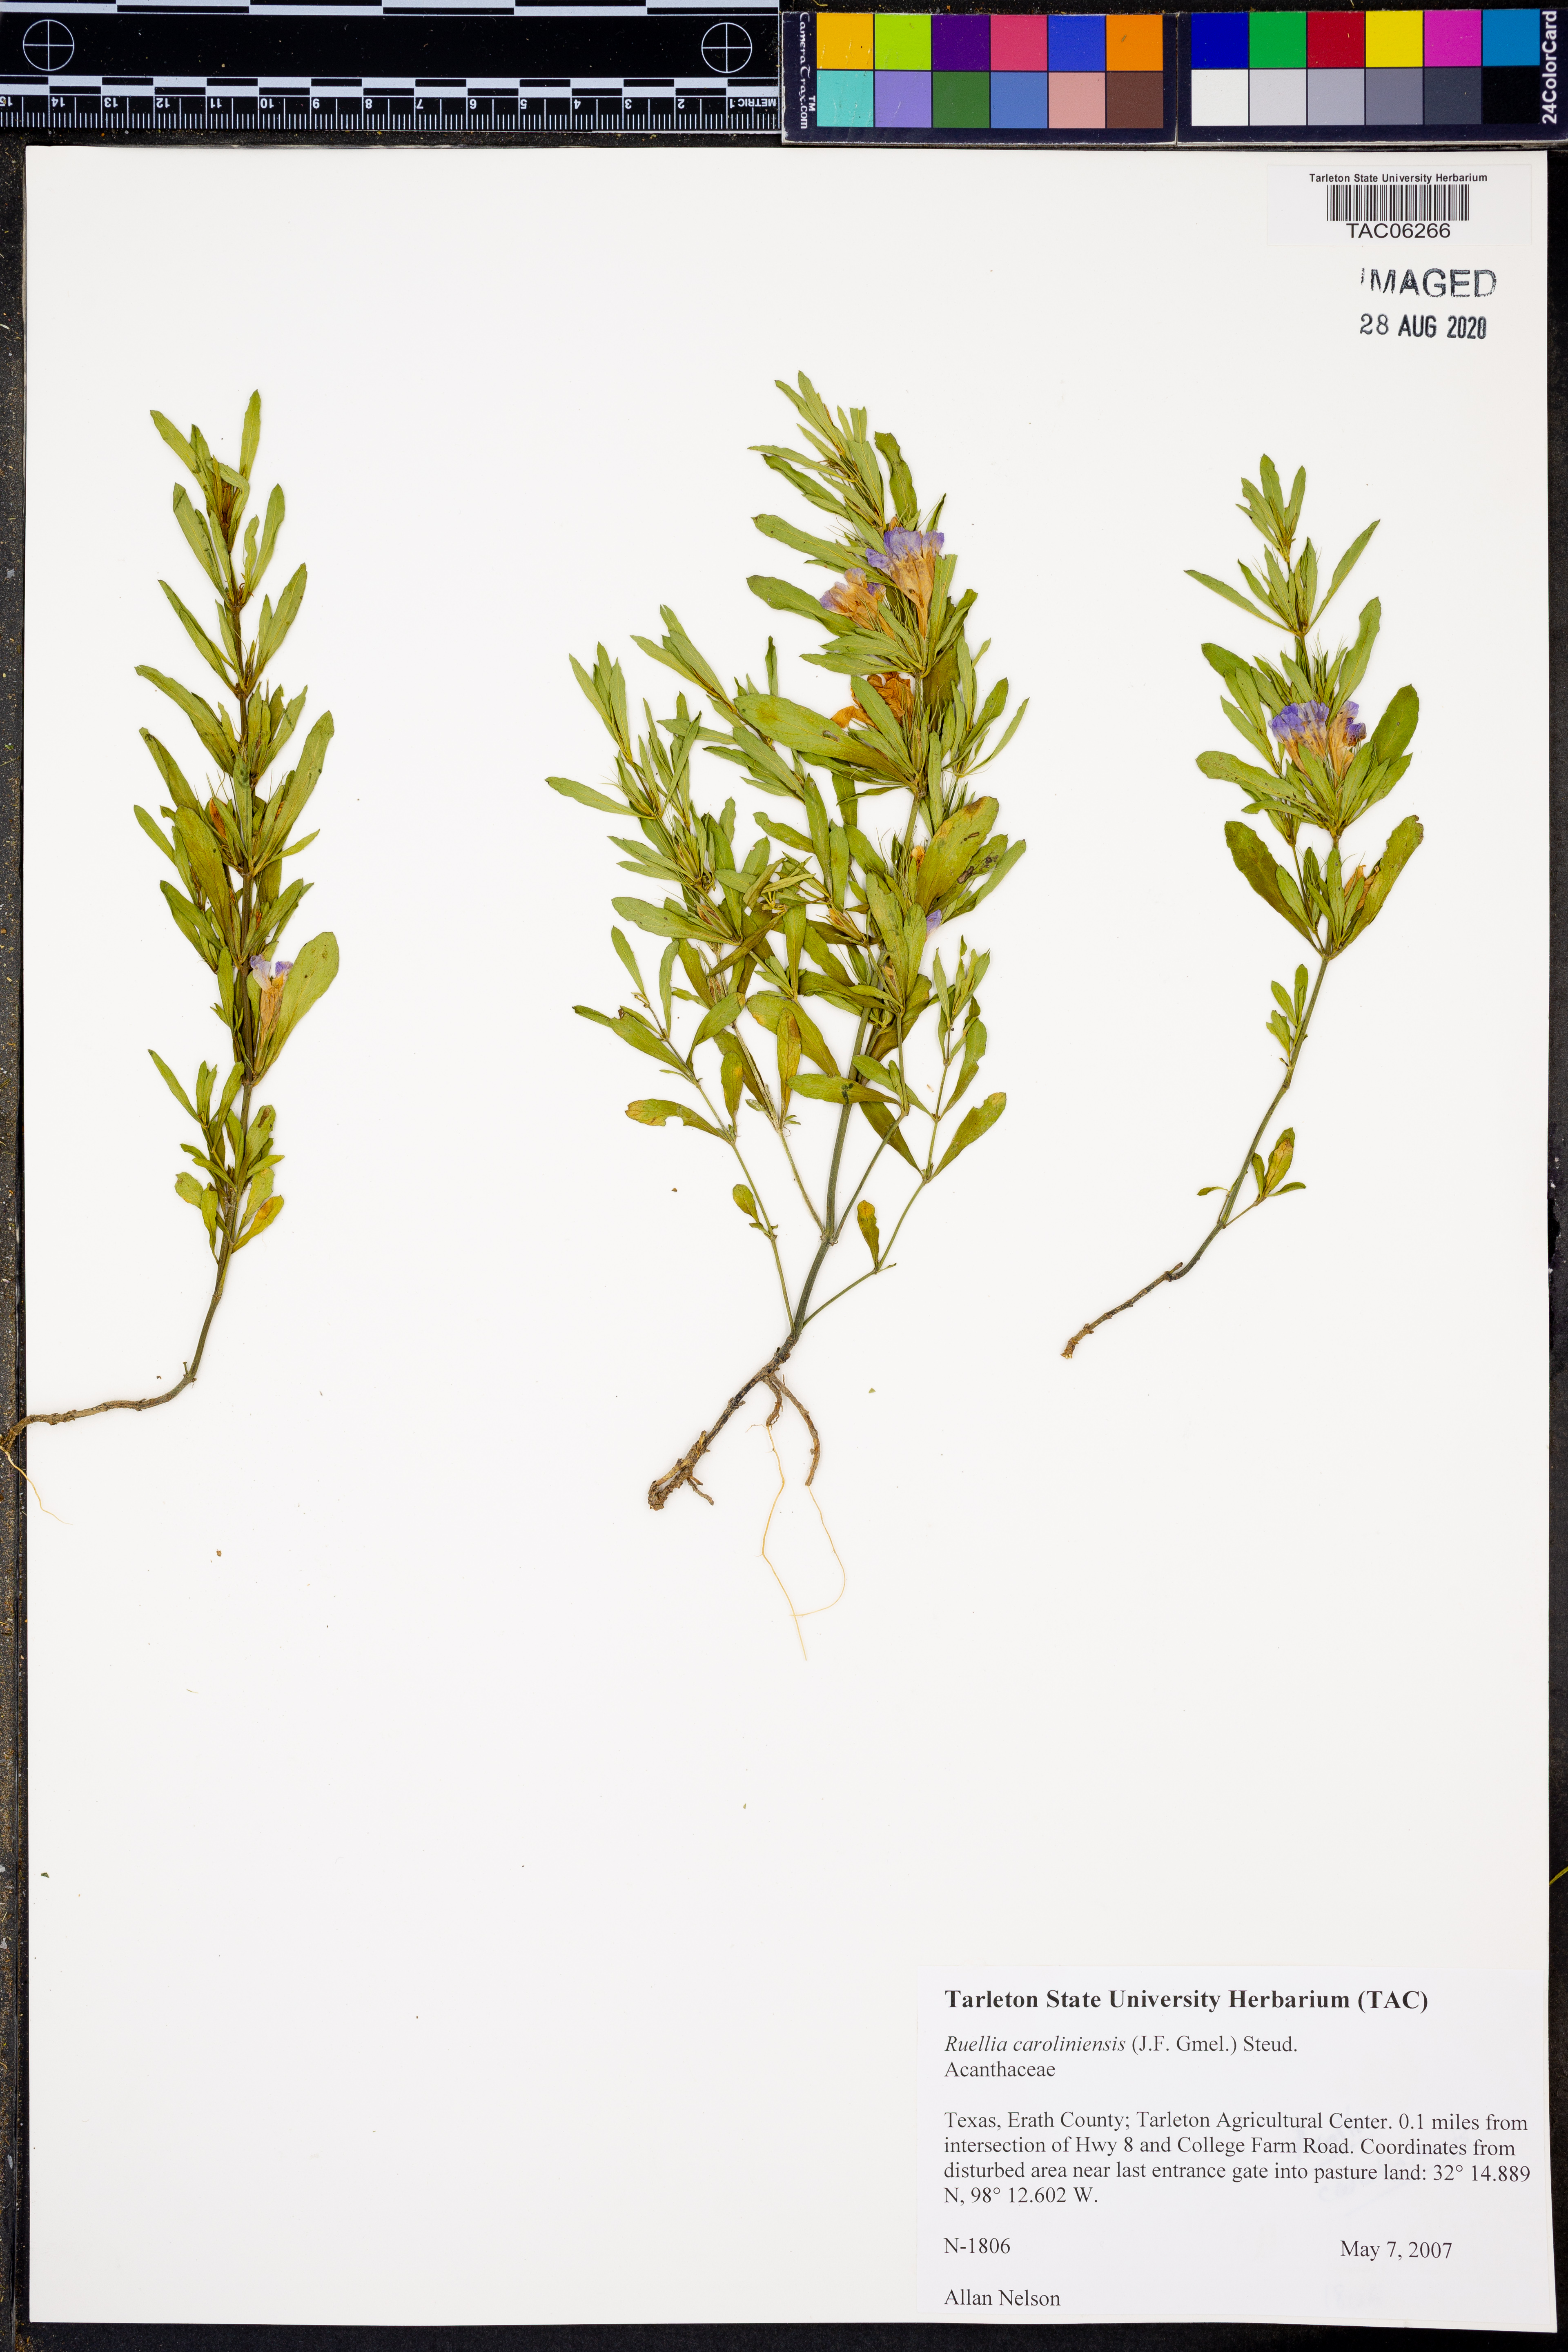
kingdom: Plantae
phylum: Tracheophyta
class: Magnoliopsida
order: Lamiales
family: Acanthaceae
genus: Ruellia
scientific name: Ruellia caroliniensis
